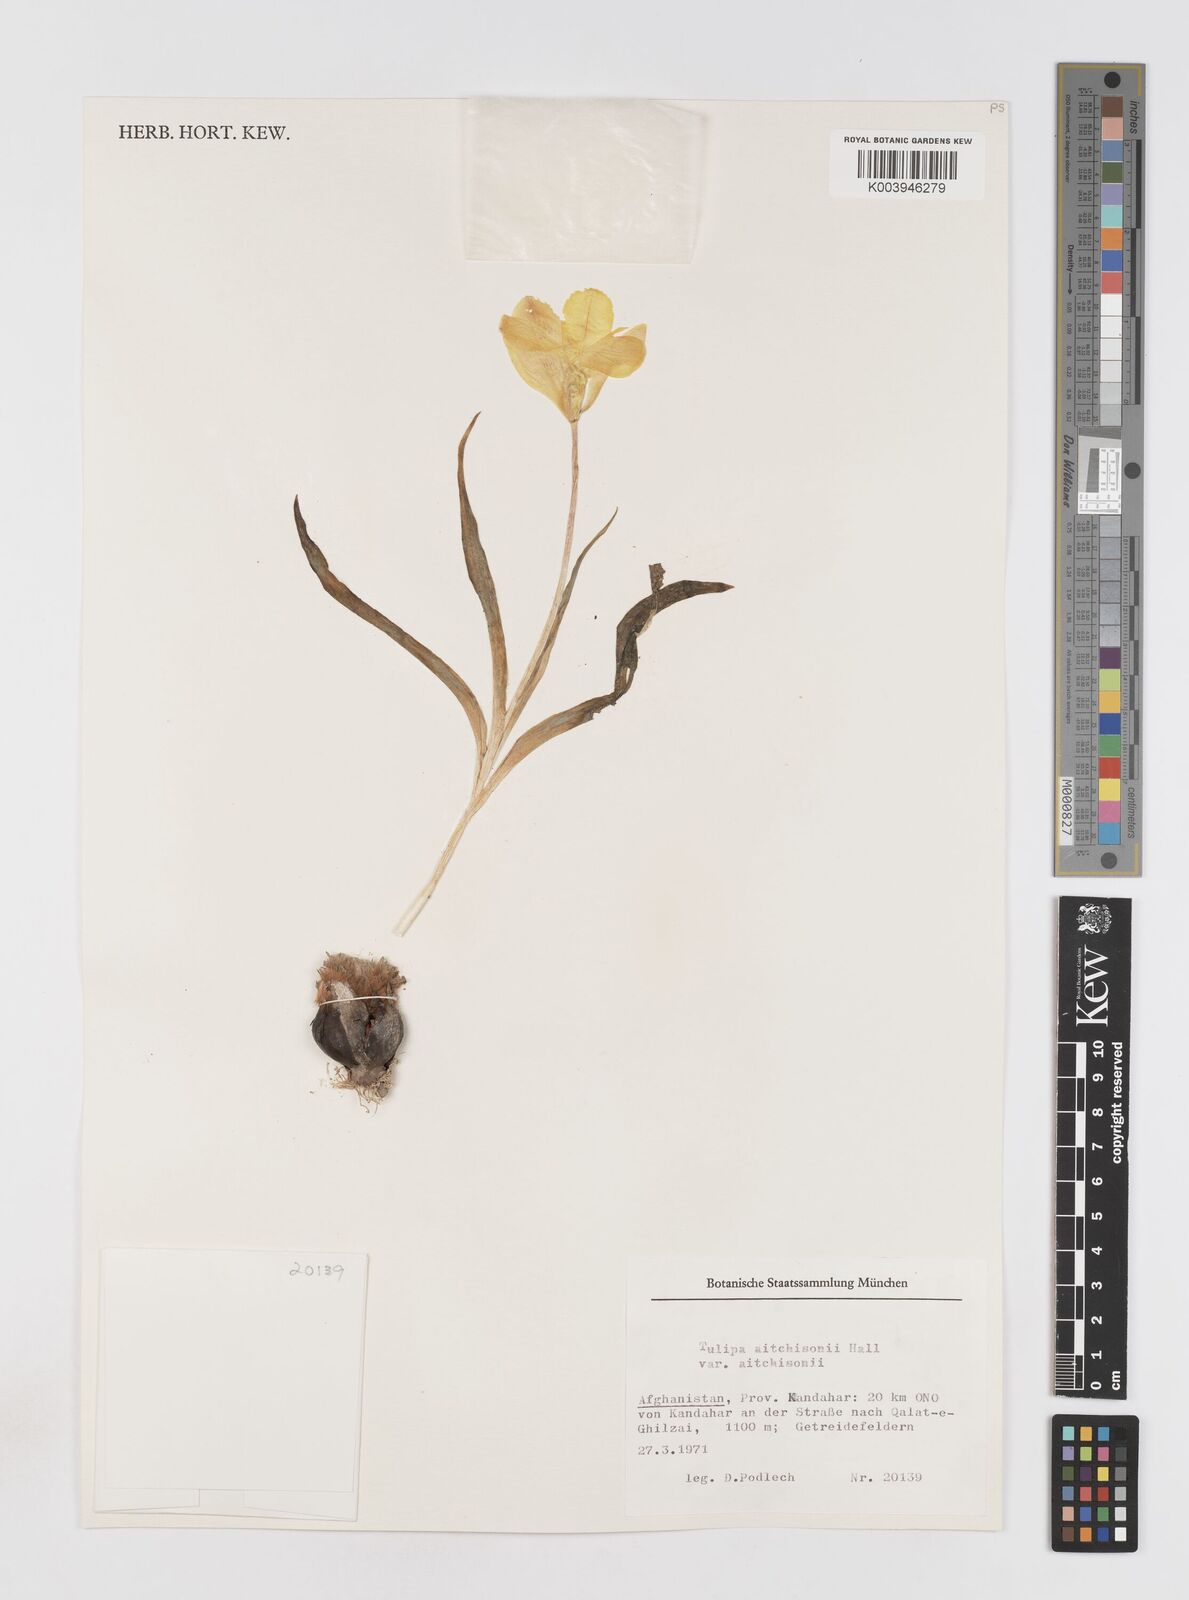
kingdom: Plantae
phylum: Tracheophyta
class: Liliopsida
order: Liliales
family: Liliaceae
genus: Tulipa
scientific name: Tulipa clusiana
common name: Lady tulip
